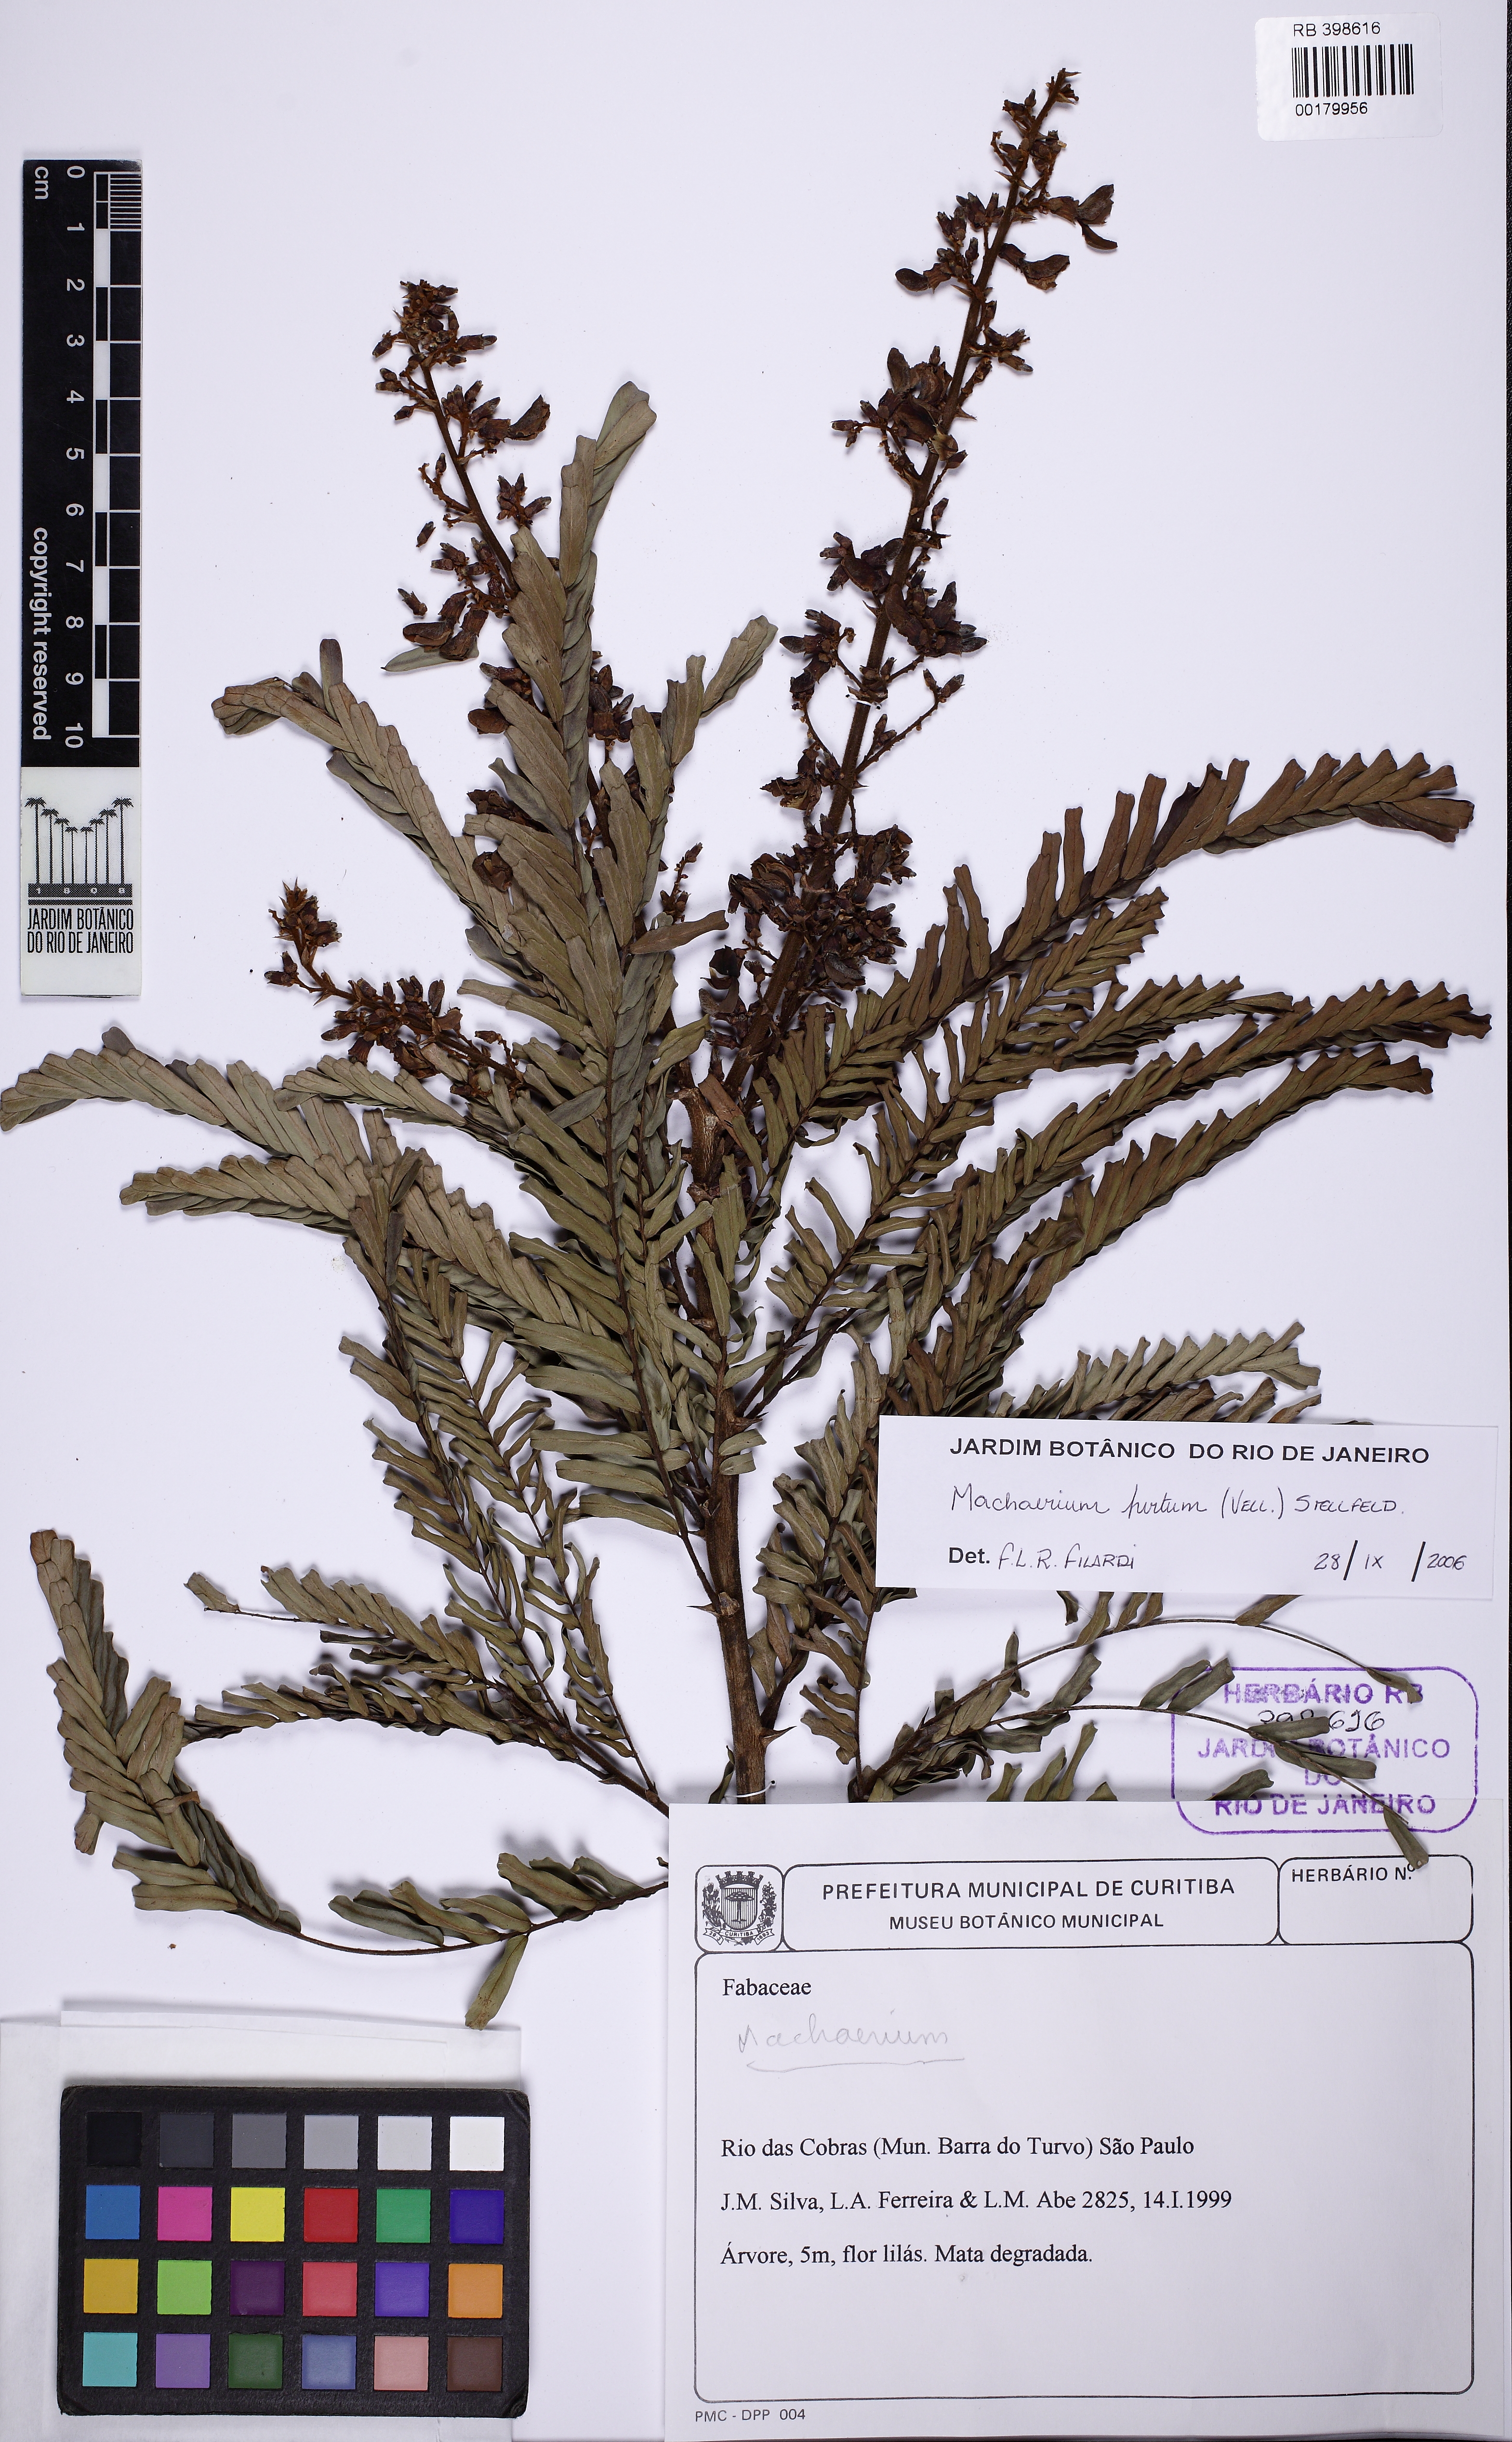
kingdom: Plantae
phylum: Tracheophyta
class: Magnoliopsida
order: Fabales
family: Fabaceae
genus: Machaerium
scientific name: Machaerium hirtum
